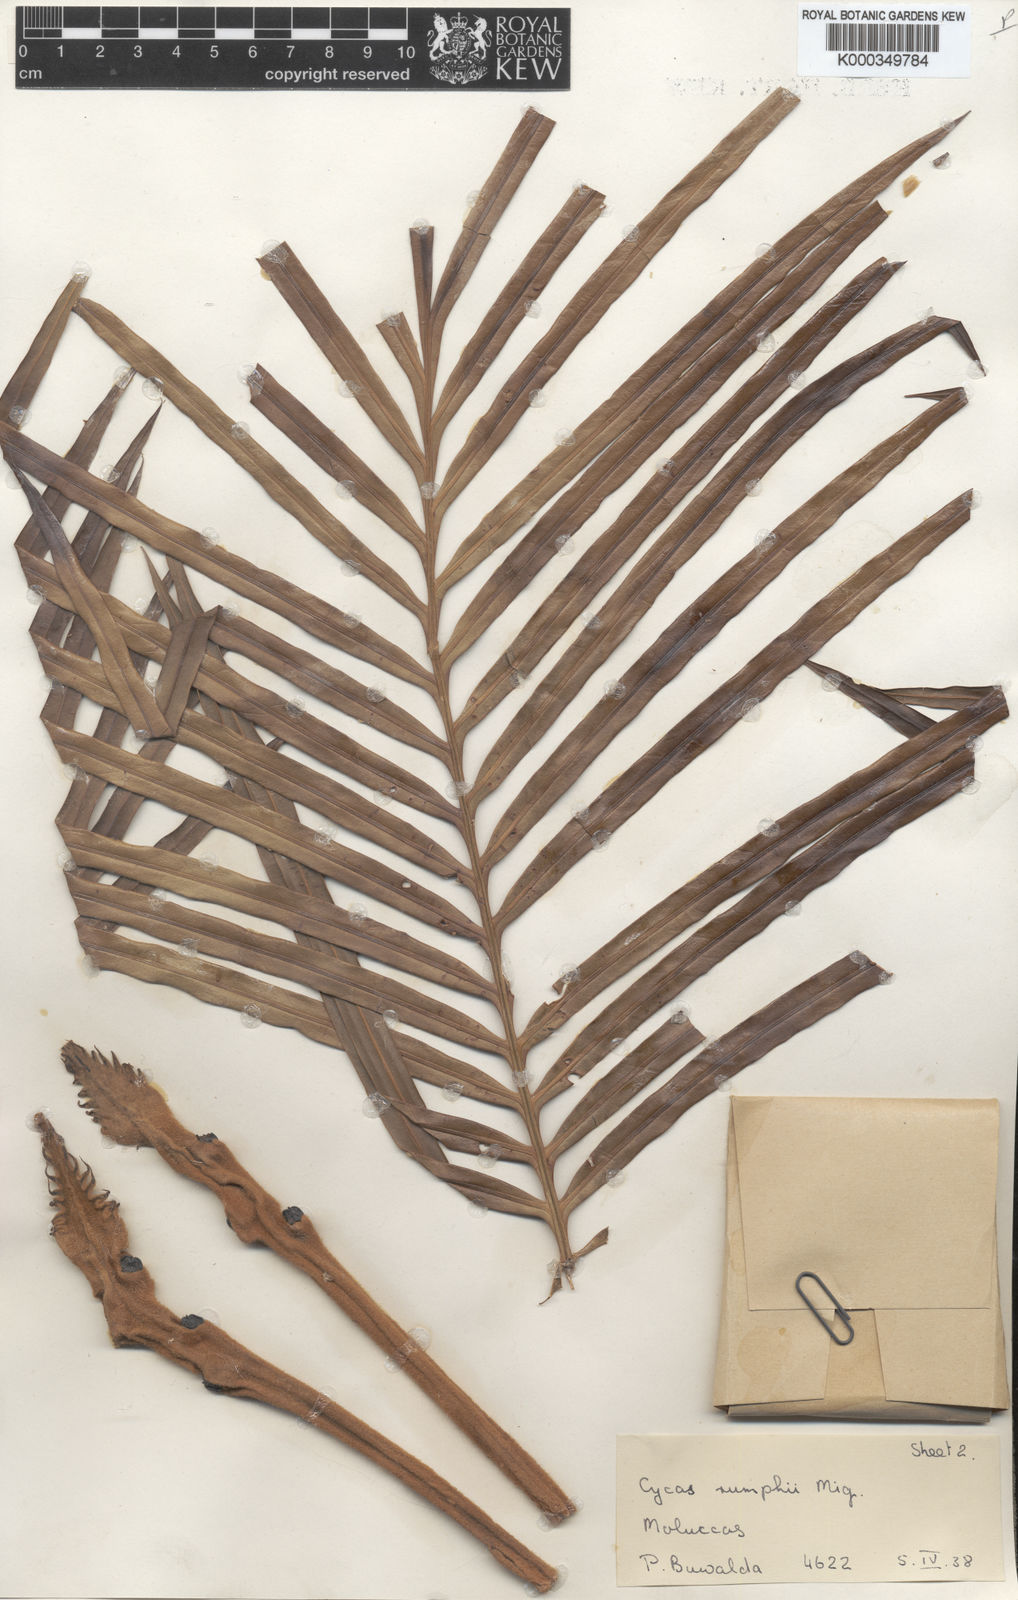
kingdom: Plantae
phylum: Tracheophyta
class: Cycadopsida
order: Cycadales
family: Cycadaceae
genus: Cycas
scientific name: Cycas rumphii
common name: Queen sago
